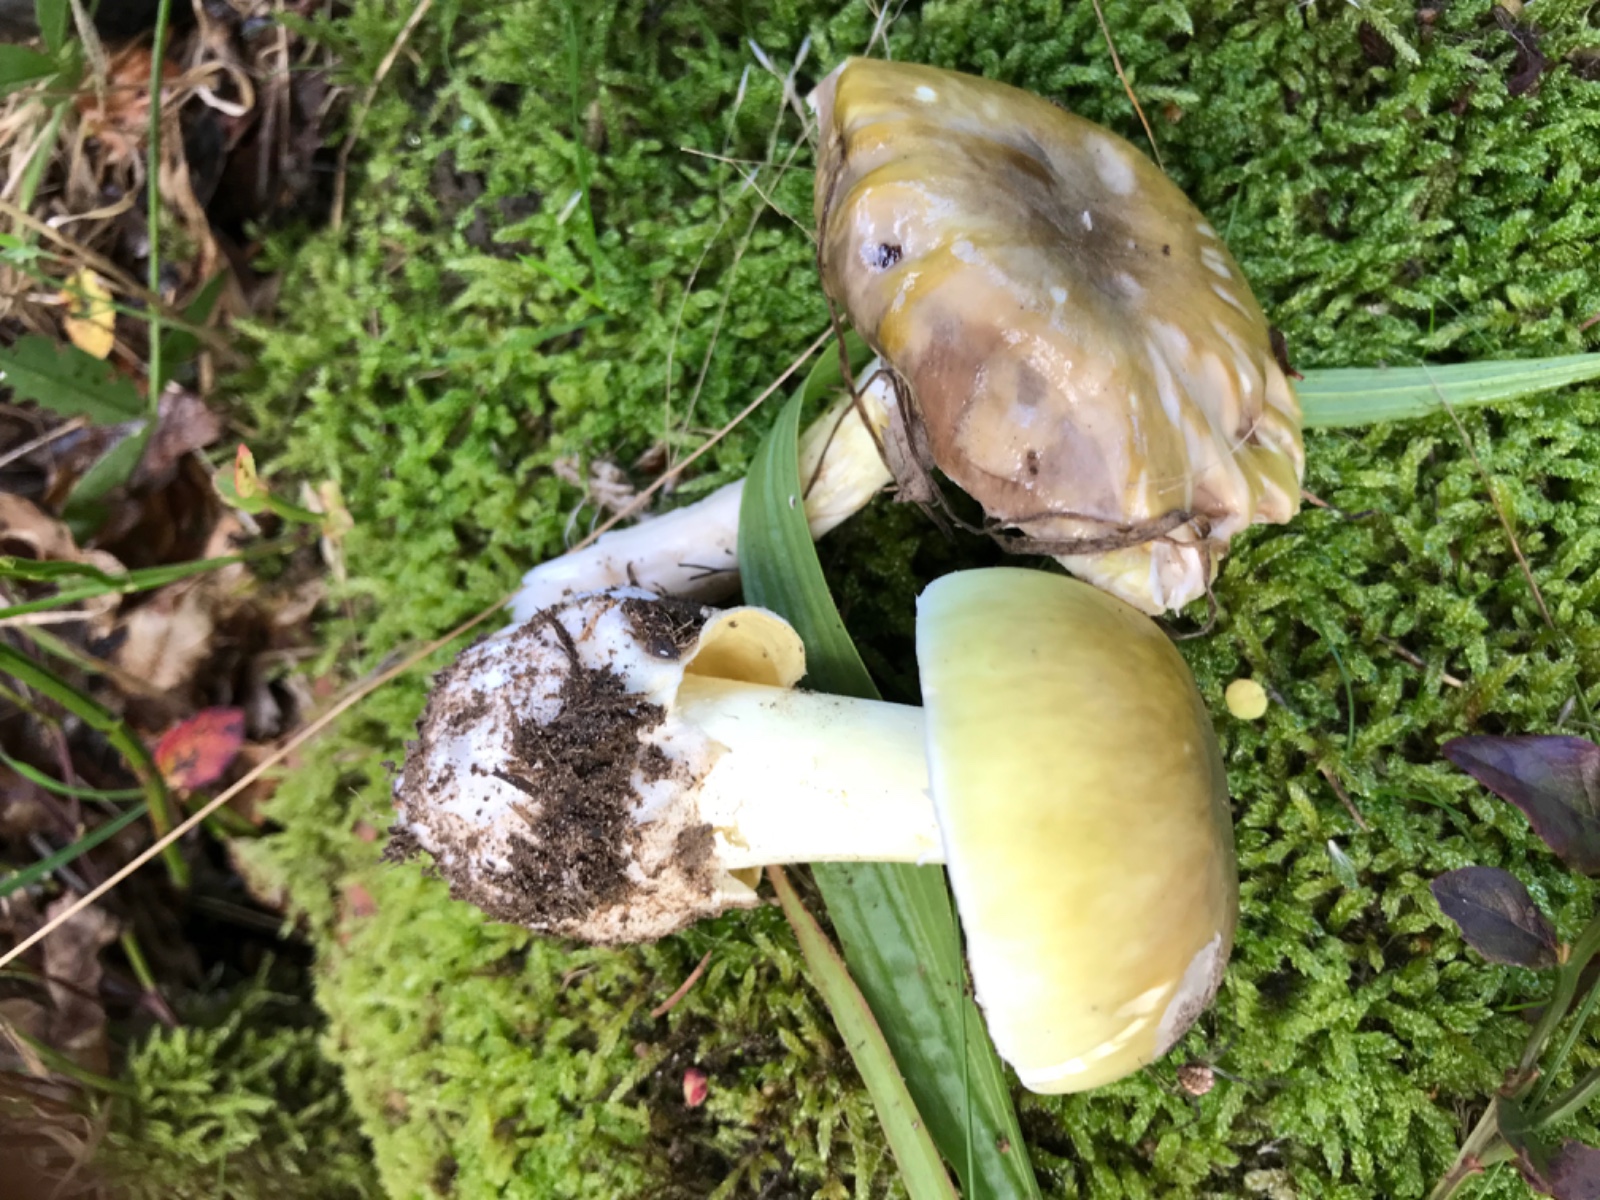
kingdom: Fungi
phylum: Basidiomycota
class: Agaricomycetes
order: Agaricales
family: Amanitaceae
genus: Amanita
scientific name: Amanita phalloides
